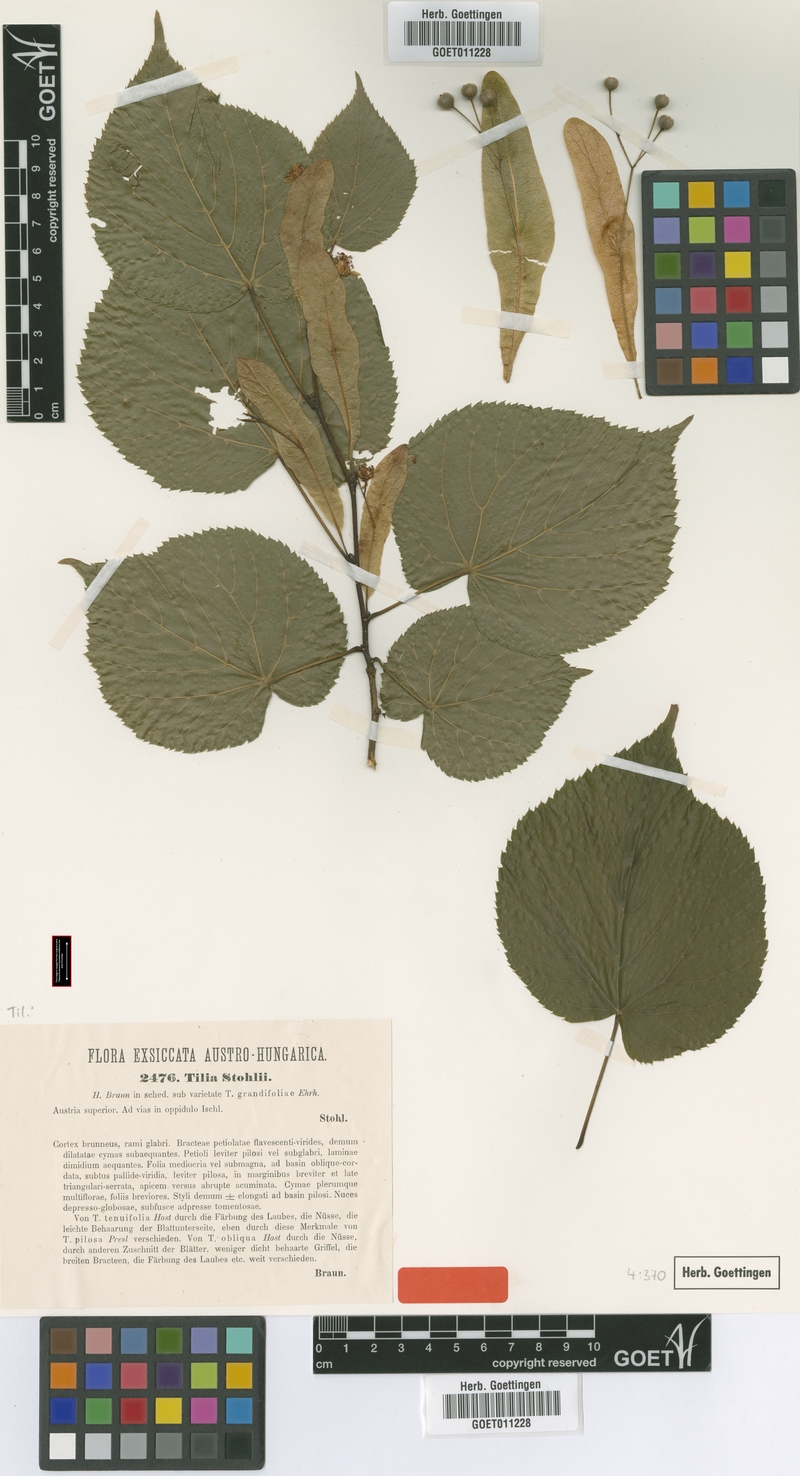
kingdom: Plantae
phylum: Tracheophyta
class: Magnoliopsida
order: Malvales
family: Malvaceae
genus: Tilia
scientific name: Tilia stohlii
